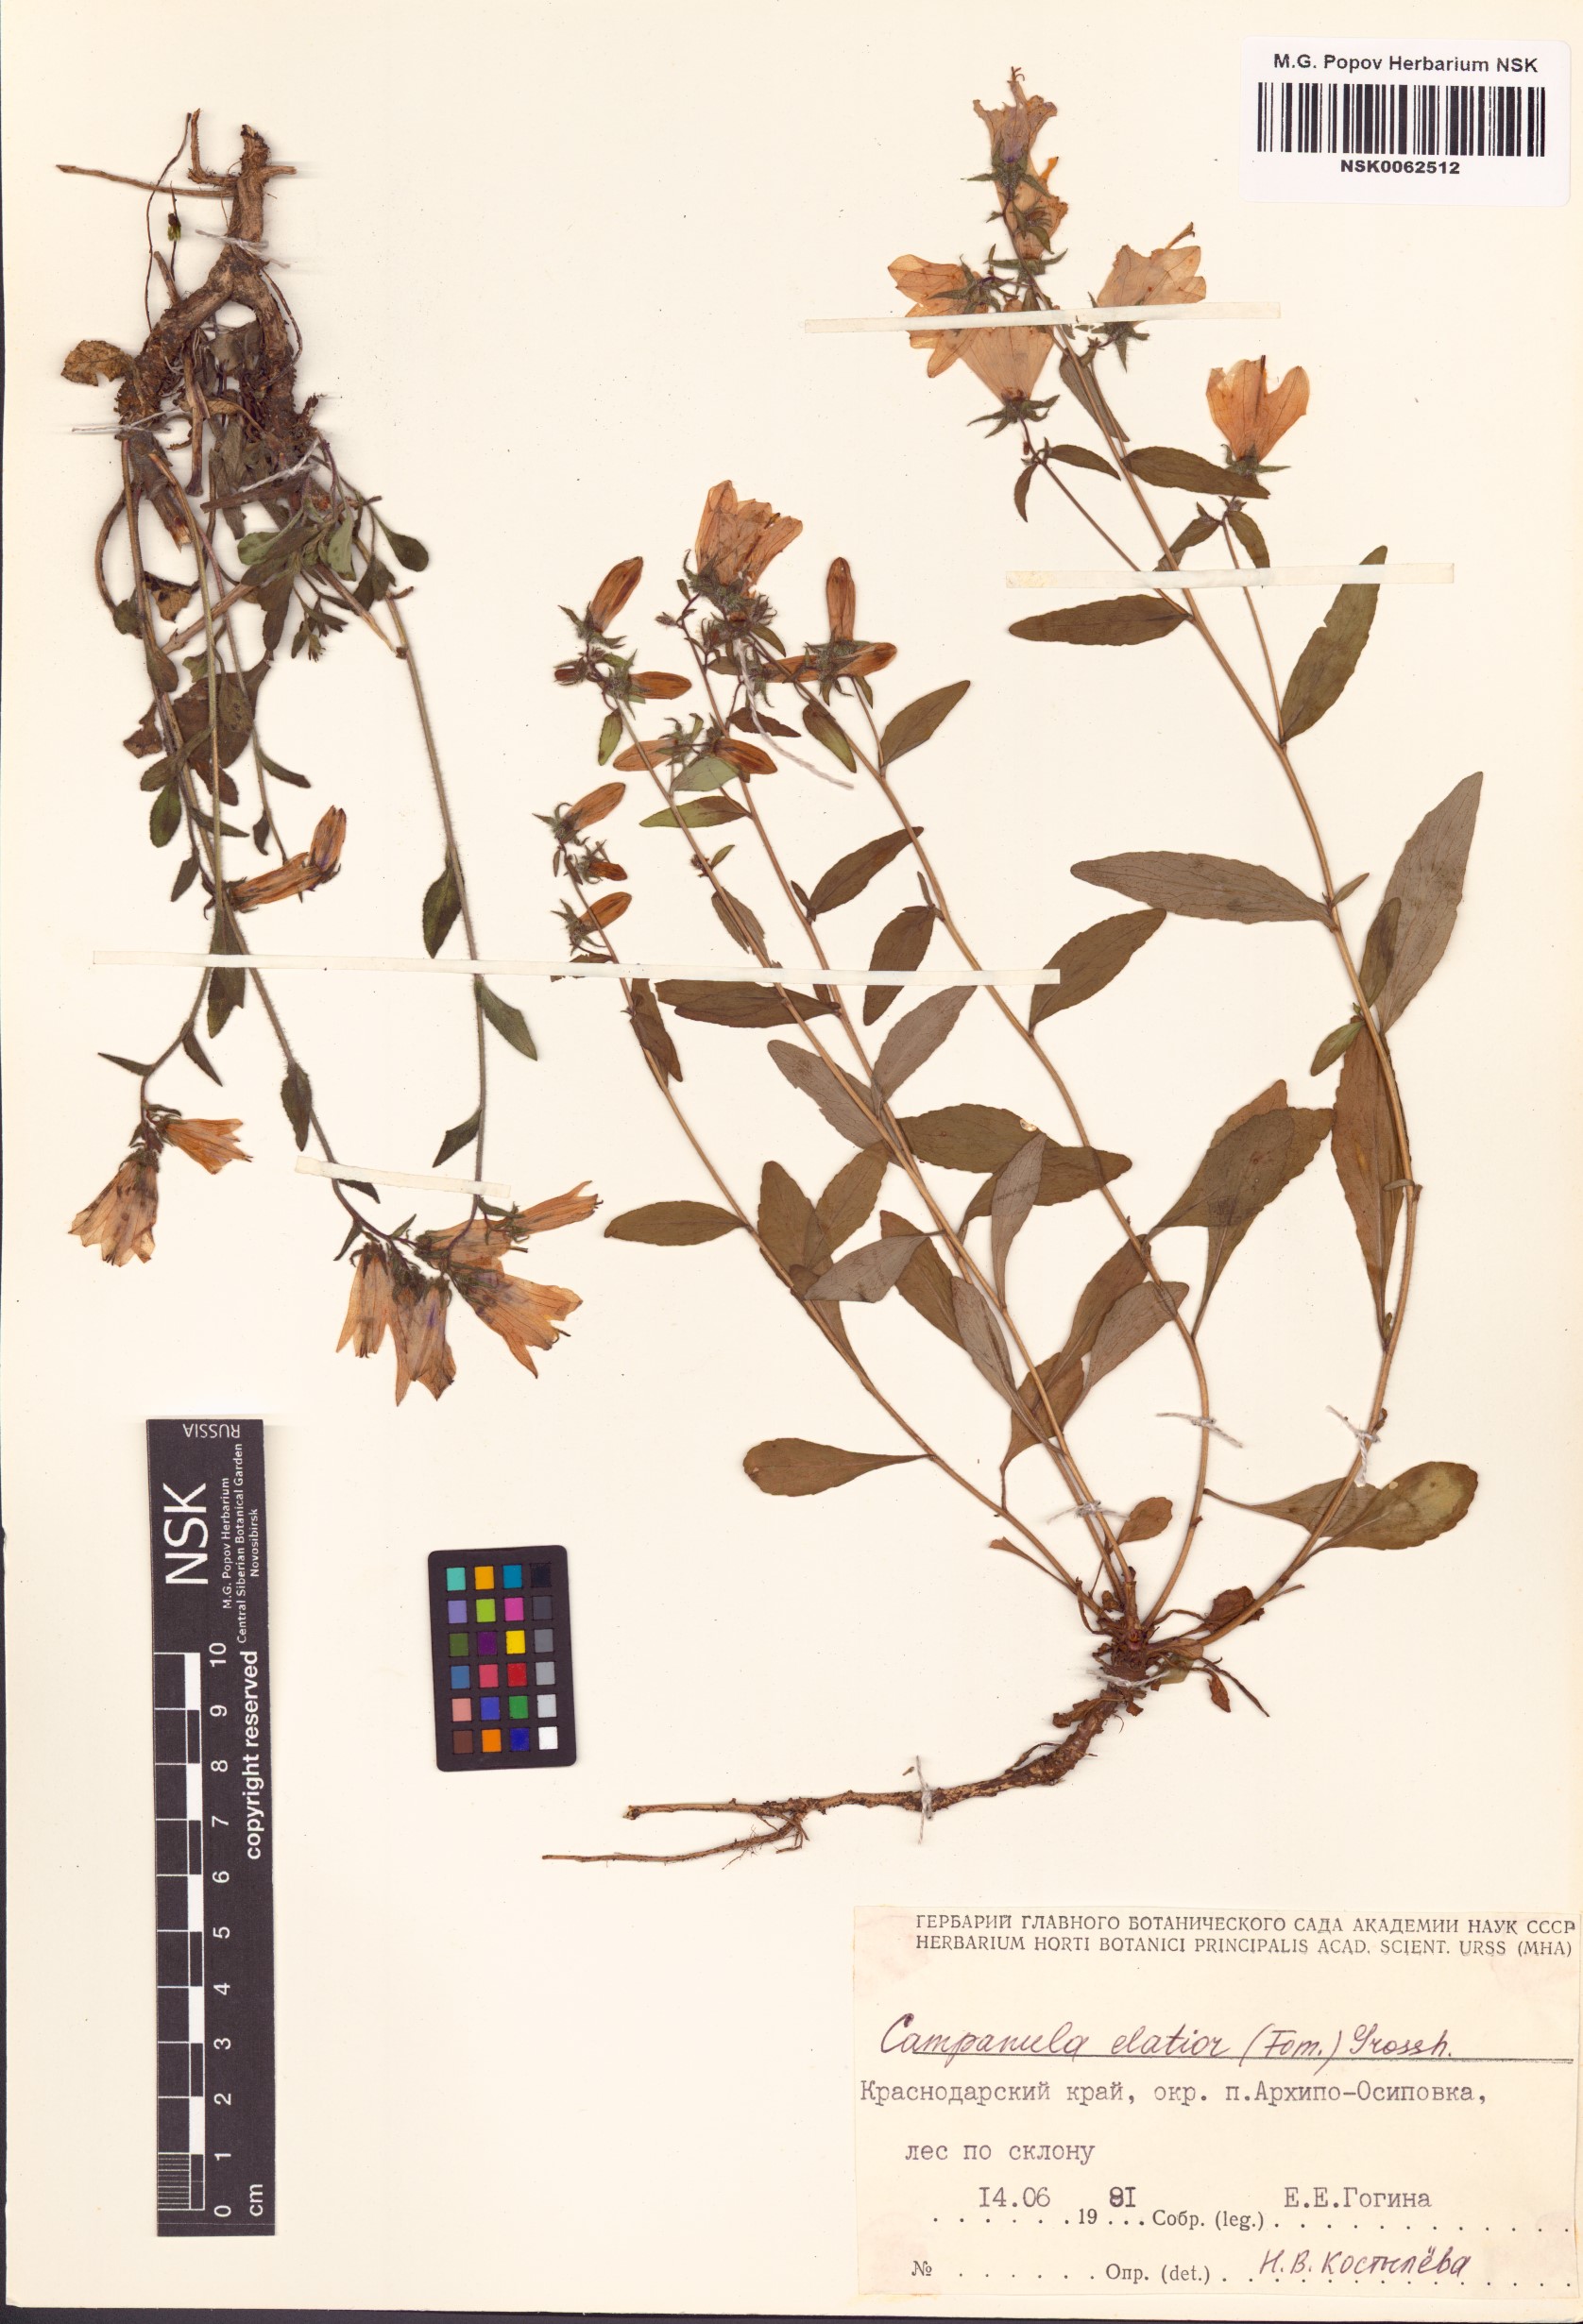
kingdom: Plantae
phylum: Tracheophyta
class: Magnoliopsida
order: Asterales
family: Campanulaceae
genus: Campanula
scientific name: Campanula sibirica
